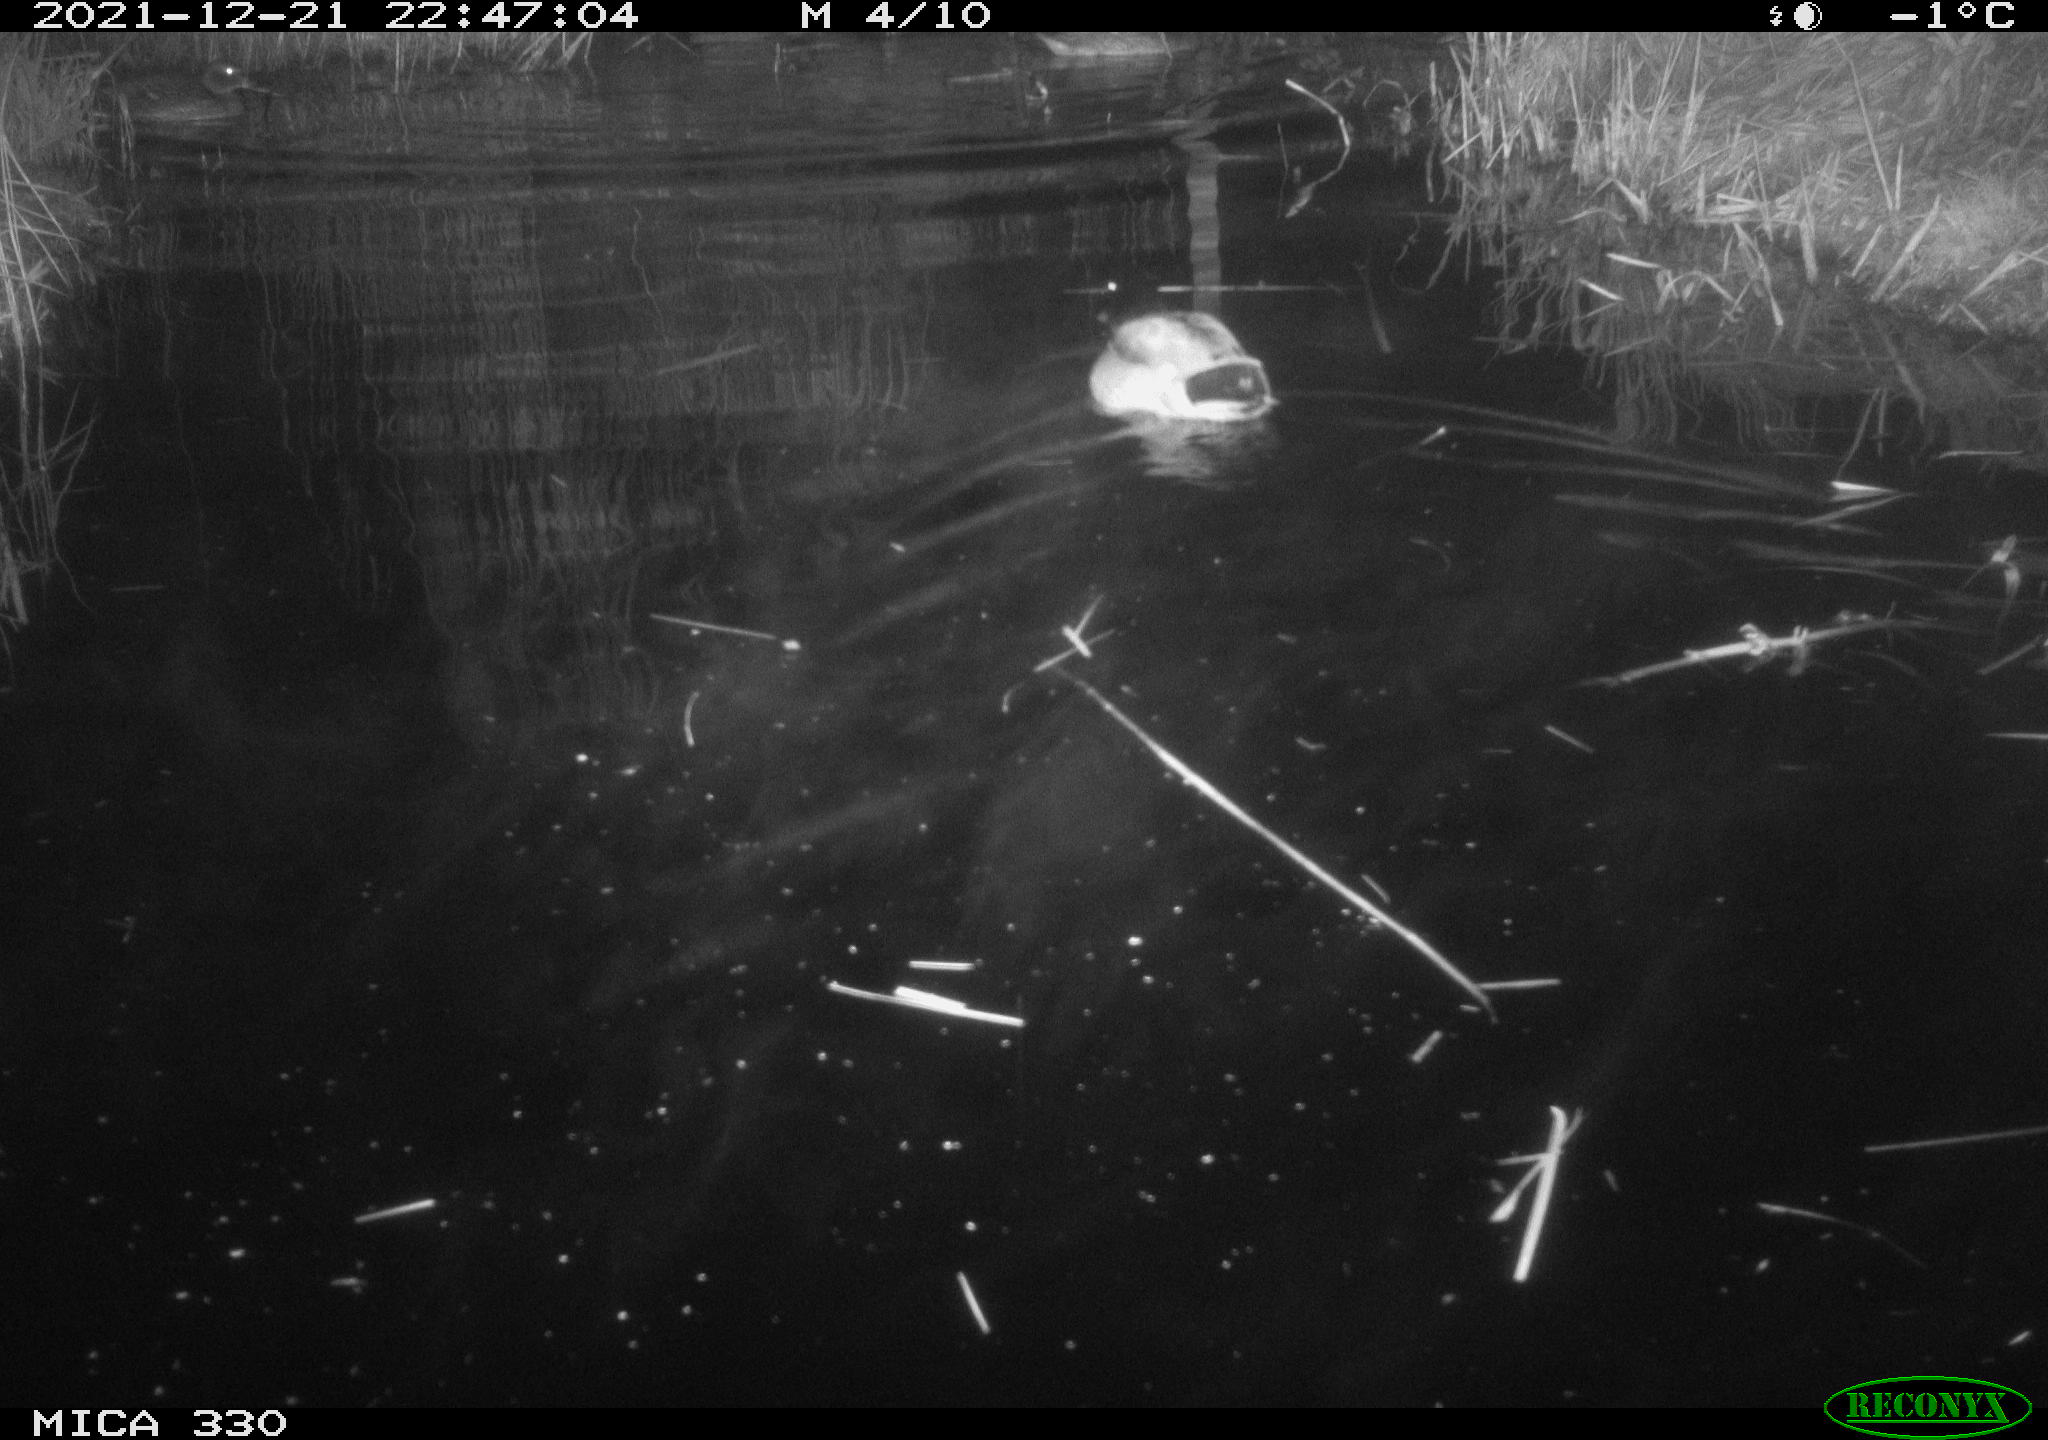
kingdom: Animalia
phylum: Chordata
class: Aves
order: Anseriformes
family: Anatidae
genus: Anas
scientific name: Anas platyrhynchos
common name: Mallard
